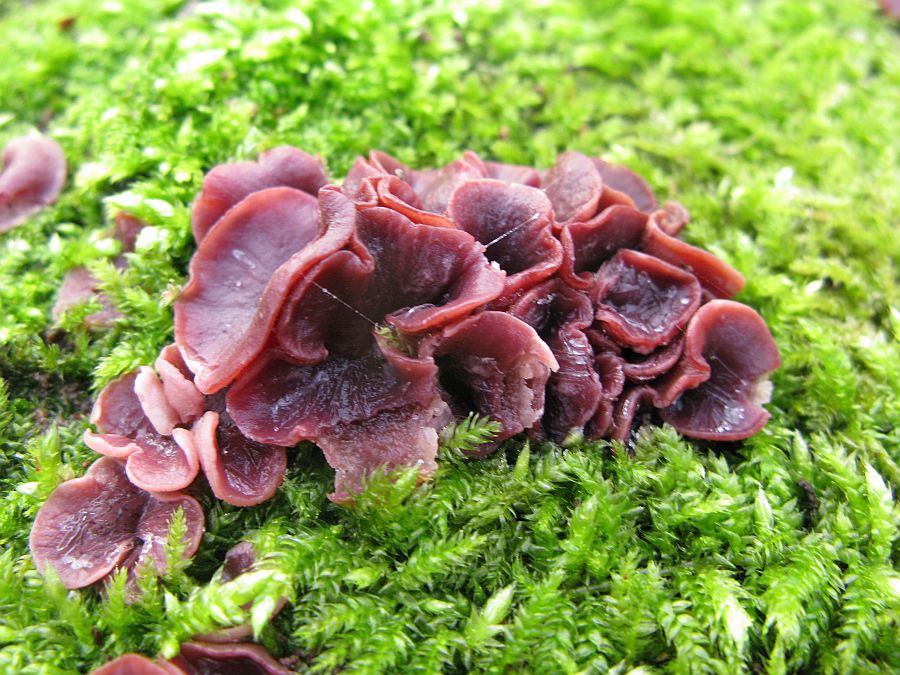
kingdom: Fungi
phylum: Ascomycota
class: Leotiomycetes
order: Helotiales
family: Gelatinodiscaceae
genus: Ascocoryne
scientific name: Ascocoryne cylichnium
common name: stor sejskive
